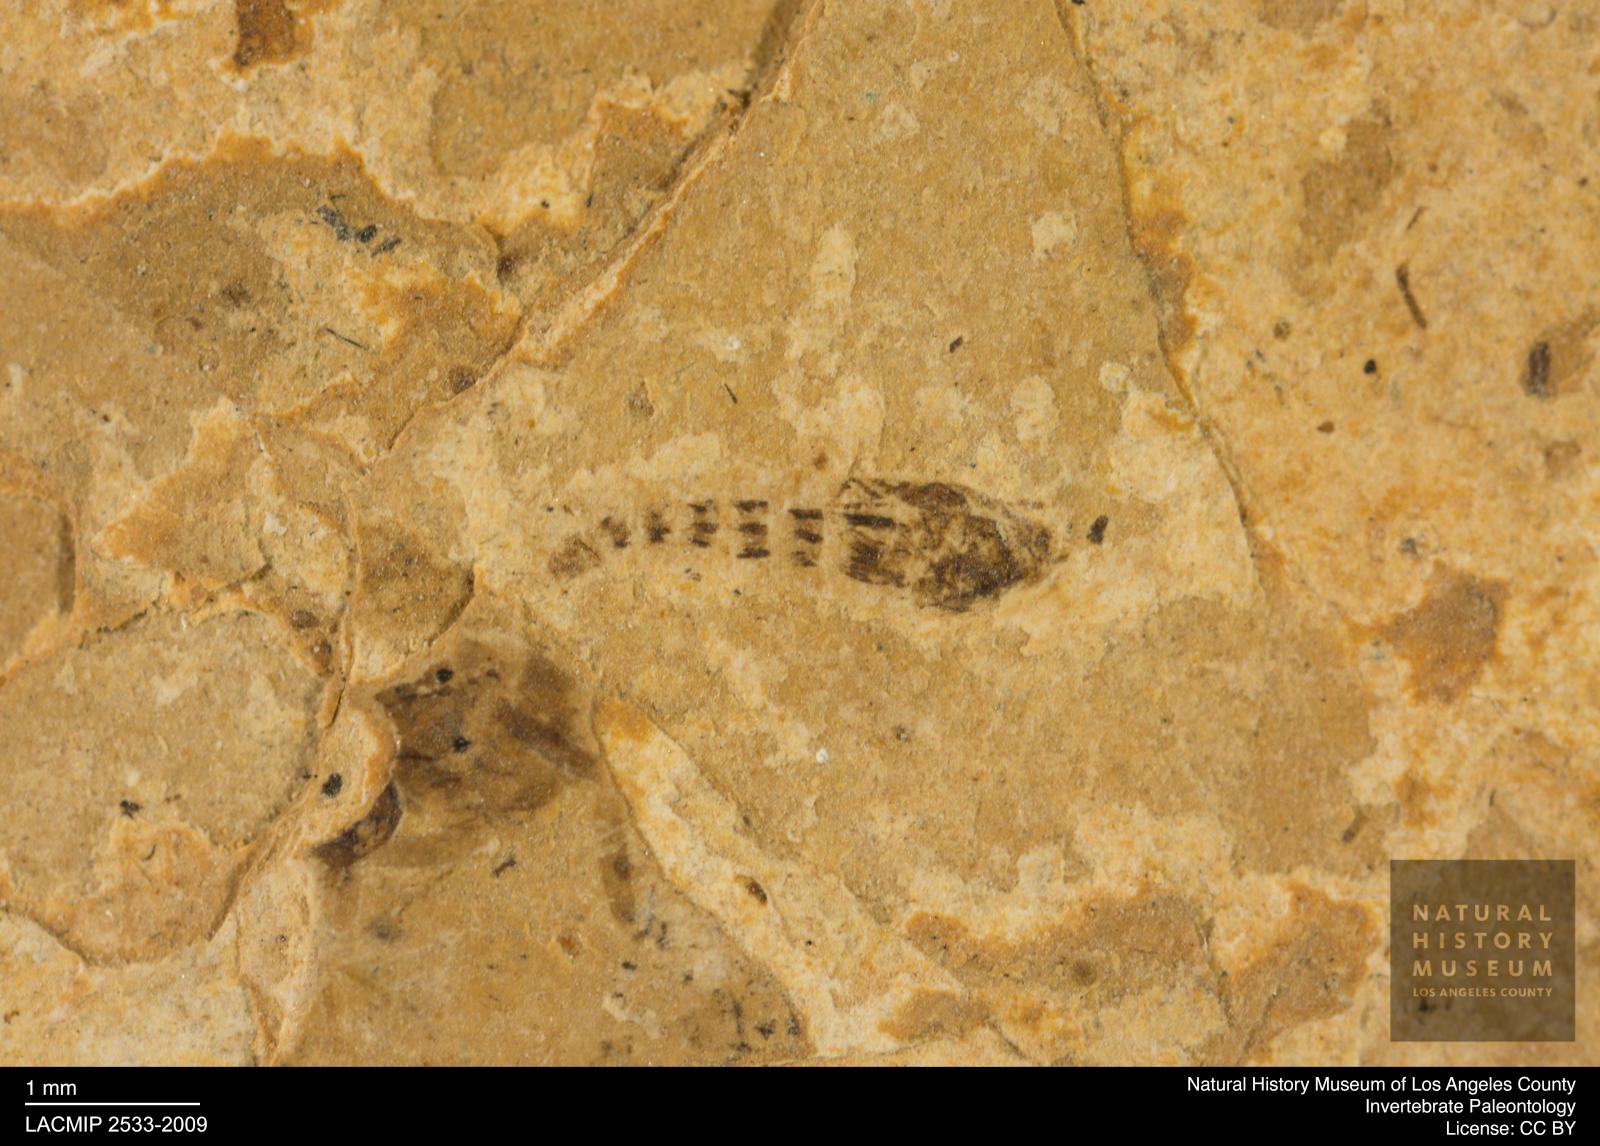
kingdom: Animalia
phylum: Arthropoda
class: Insecta
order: Diptera
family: Ceratopogonidae
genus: Ceratopogon
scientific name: Ceratopogon
